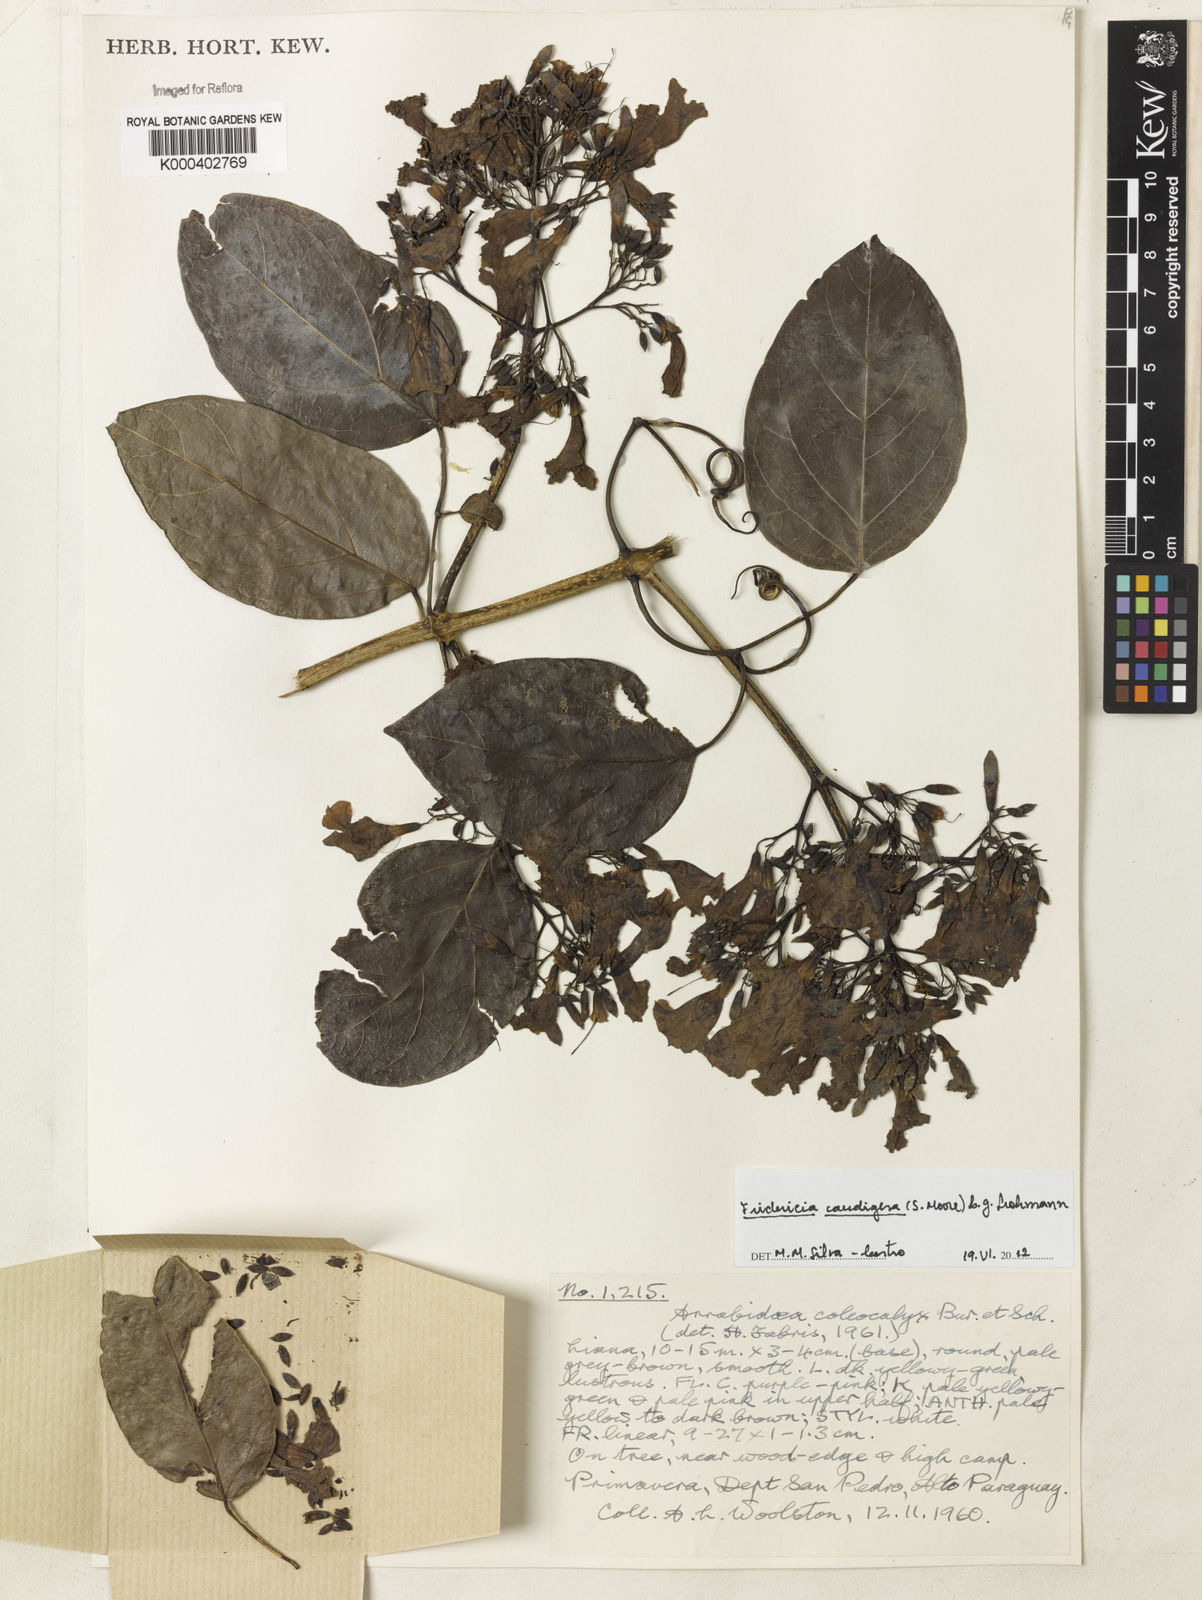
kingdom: Plantae
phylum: Tracheophyta
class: Magnoliopsida
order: Lamiales
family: Bignoniaceae
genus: Fridericia
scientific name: Fridericia caudigera
